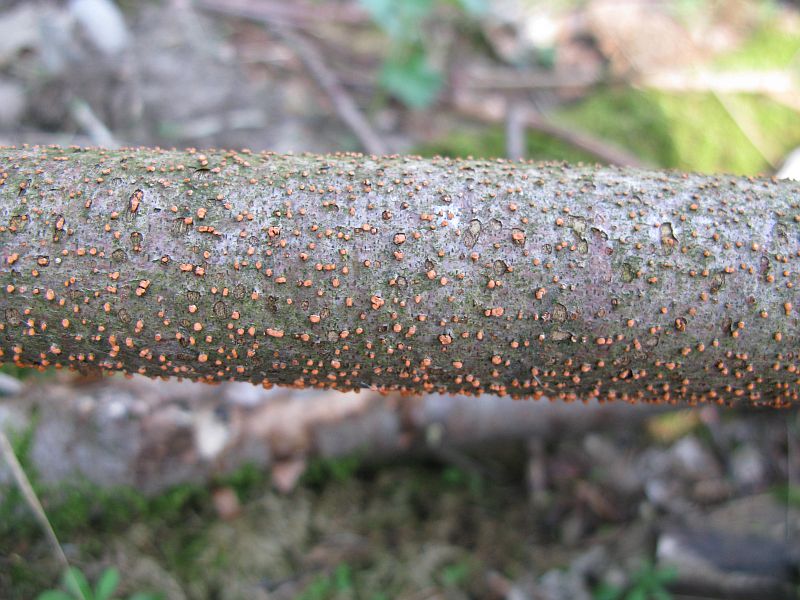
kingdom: Fungi
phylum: Ascomycota
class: Sordariomycetes
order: Hypocreales
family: Nectriaceae
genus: Nectria
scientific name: Nectria cinnabarina
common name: almindelig cinnobersvamp
